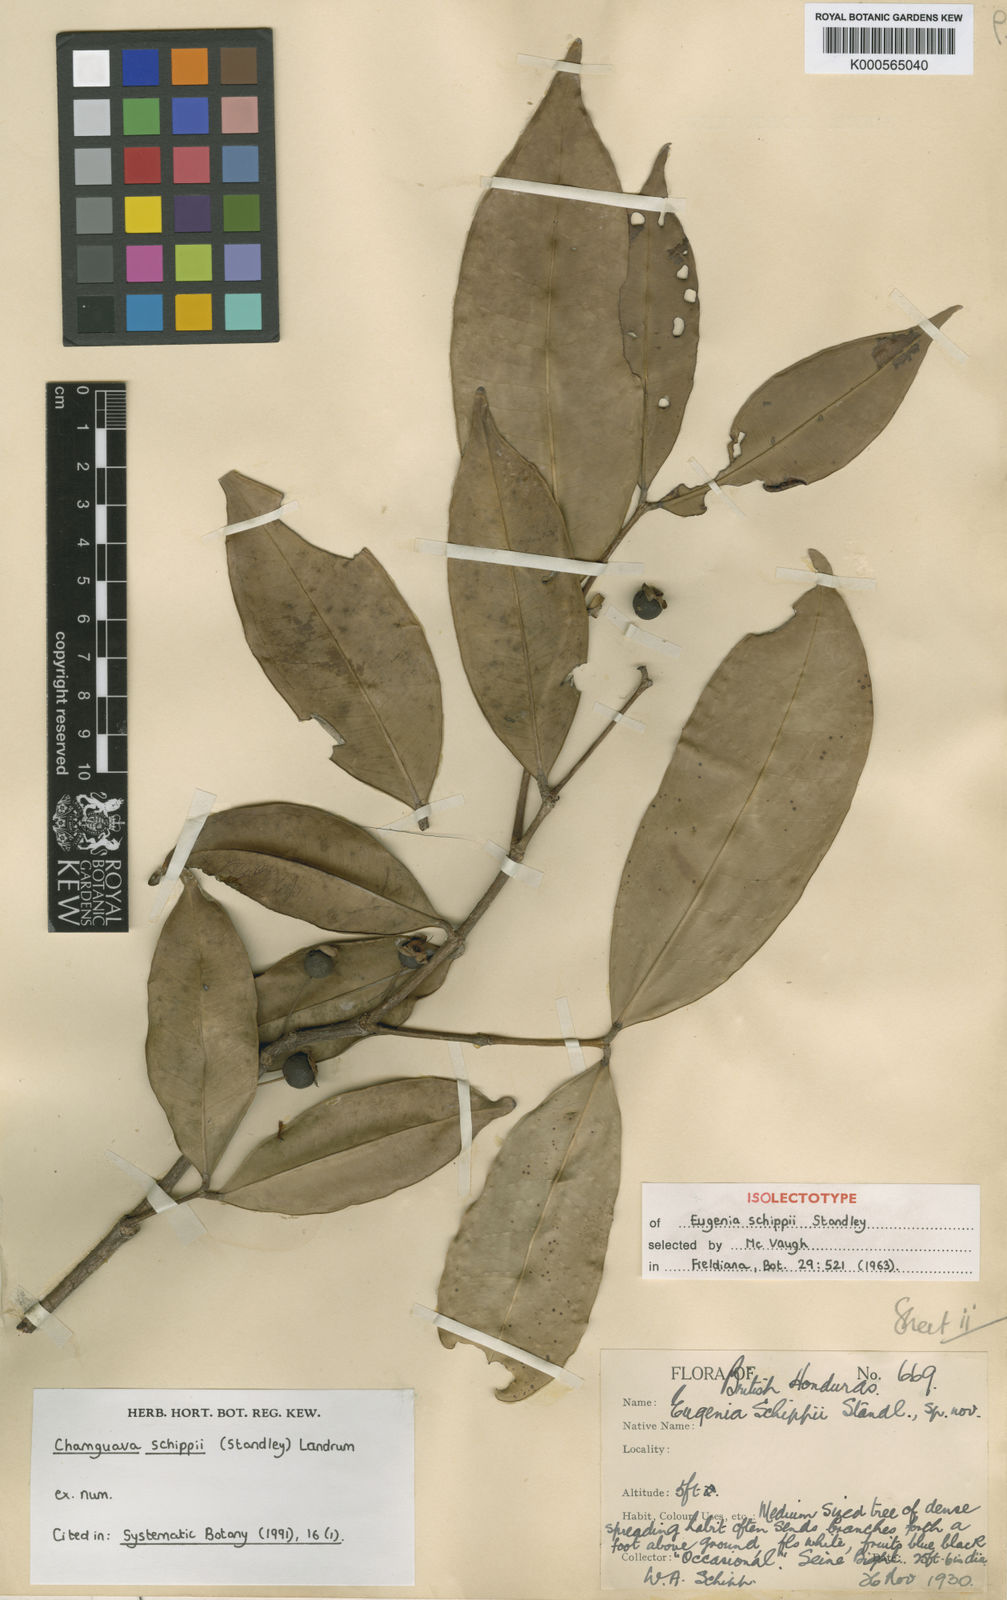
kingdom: Plantae
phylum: Tracheophyta
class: Magnoliopsida
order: Myrtales
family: Myrtaceae
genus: Chamguava
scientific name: Chamguava schippii
